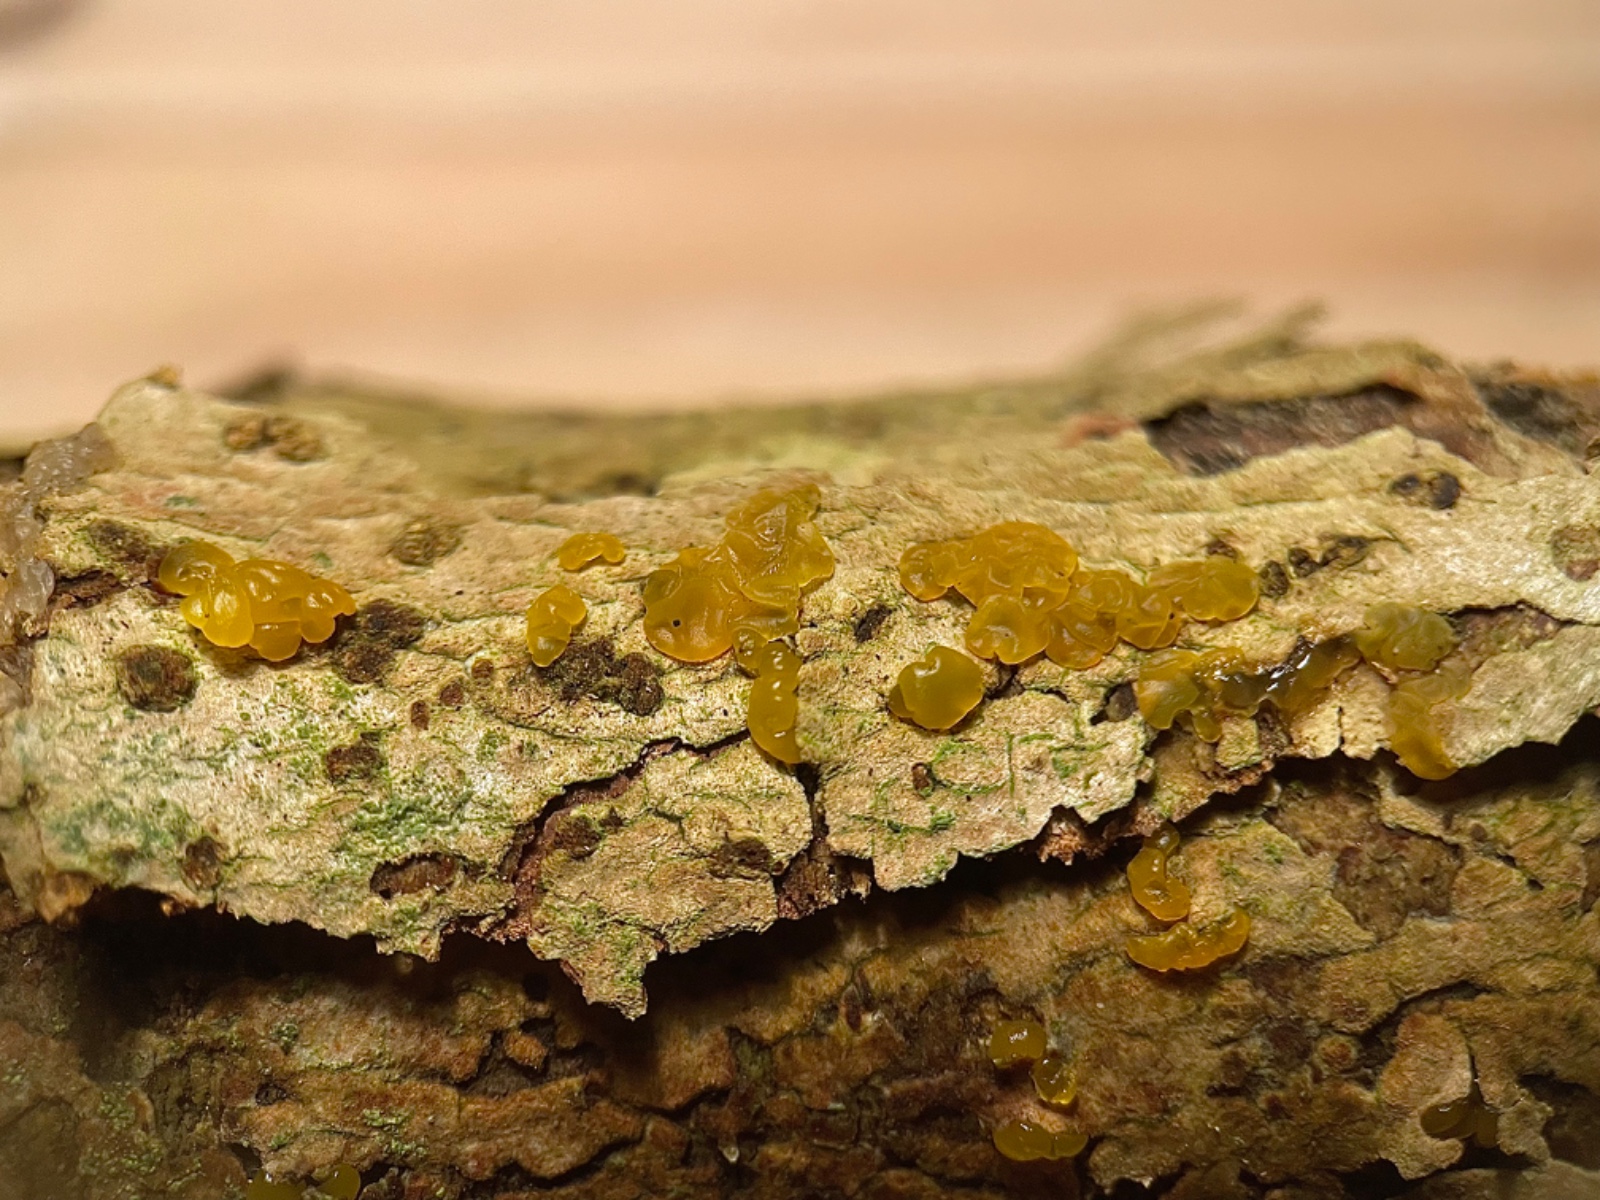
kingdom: Fungi
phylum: Basidiomycota
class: Dacrymycetes
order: Dacrymycetales
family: Dacrymycetaceae
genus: Dacrymyces
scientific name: Dacrymyces lacrymalis
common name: rynket tåresvamp
